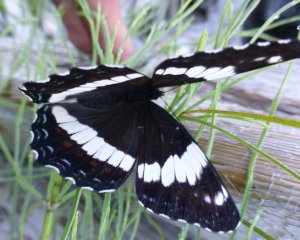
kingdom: Animalia
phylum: Arthropoda
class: Insecta
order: Lepidoptera
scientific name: Lepidoptera
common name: Butterflies
